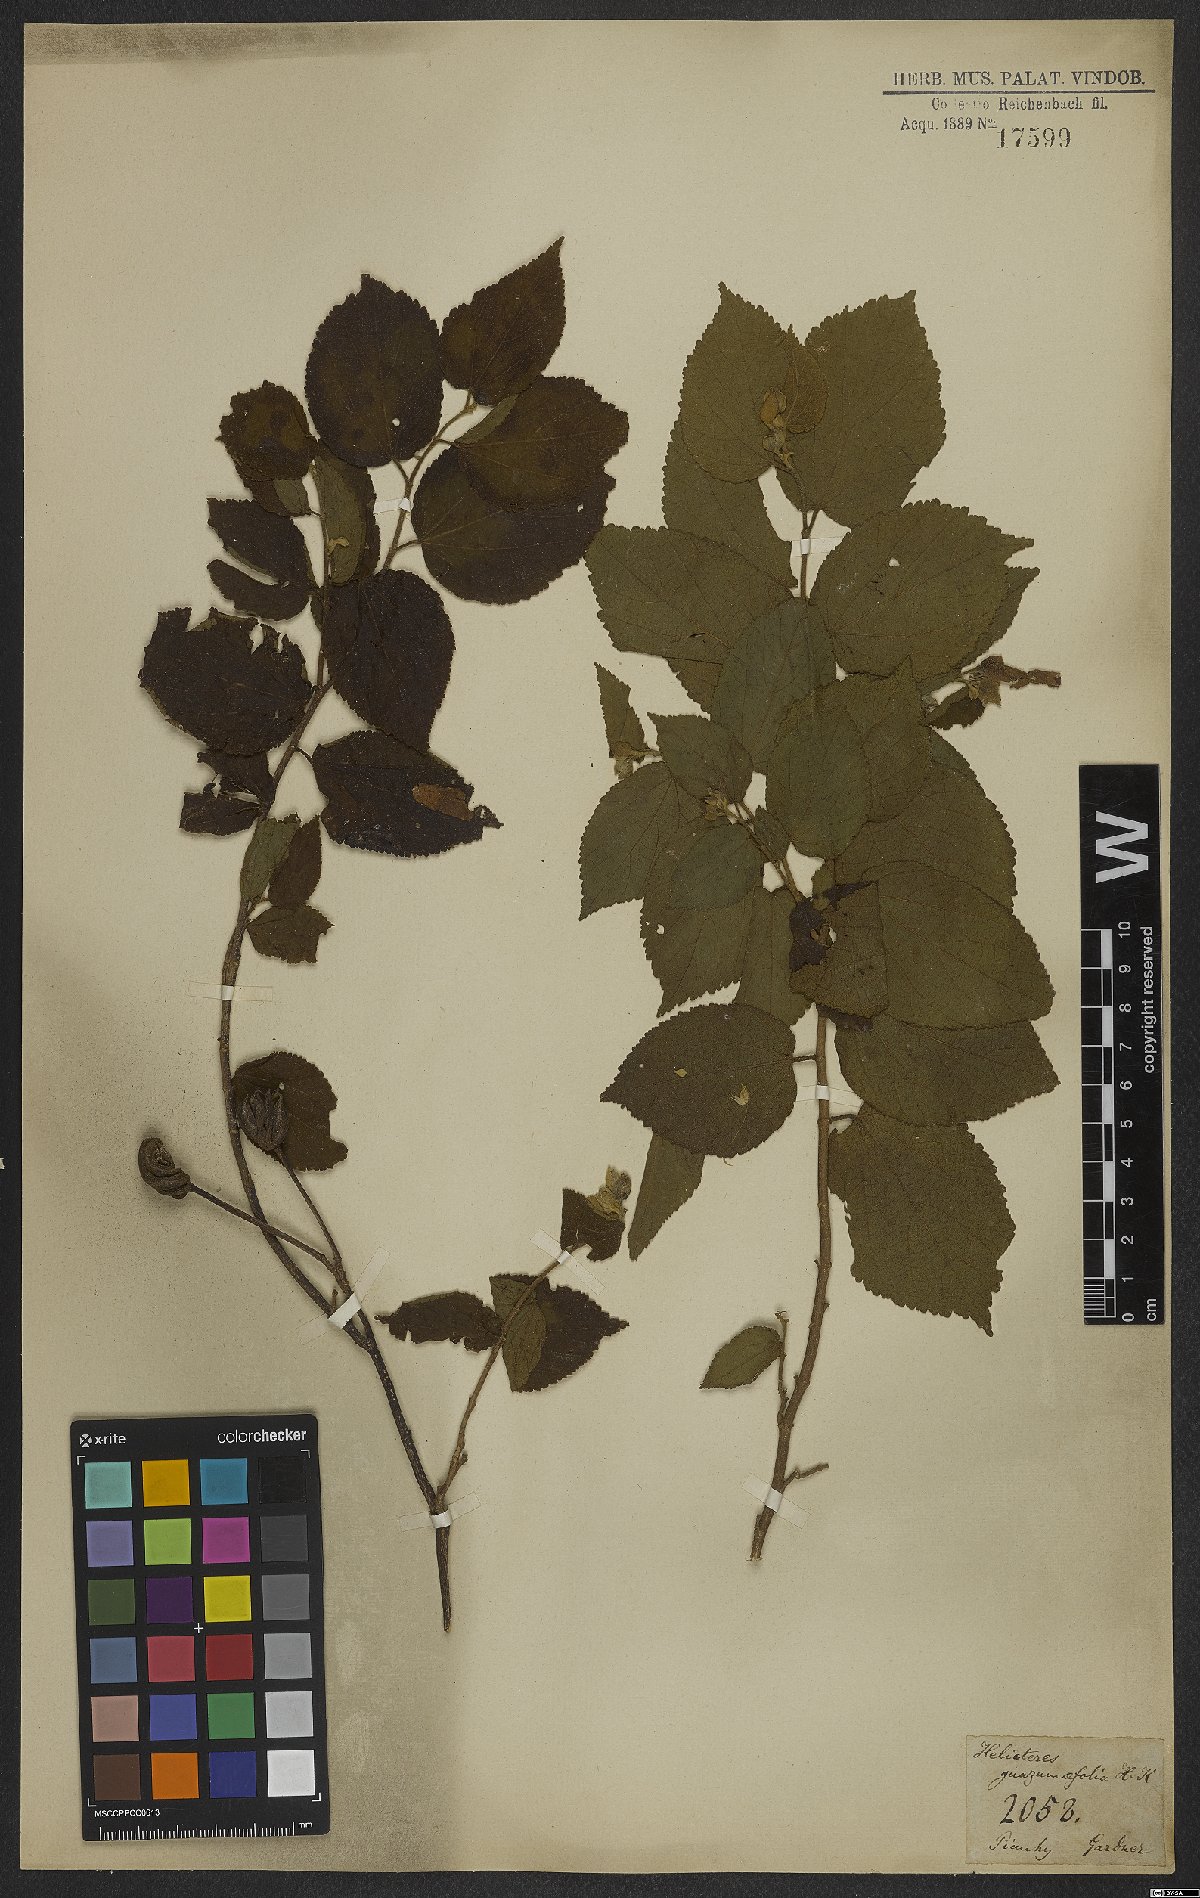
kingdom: Plantae
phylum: Tracheophyta
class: Magnoliopsida
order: Malvales
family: Malvaceae
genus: Helicteres
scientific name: Helicteres guazumifolia
